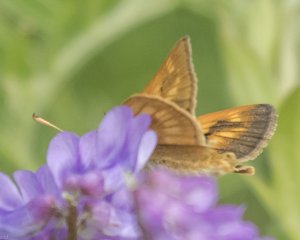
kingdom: Animalia
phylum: Arthropoda
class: Insecta
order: Lepidoptera
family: Hesperiidae
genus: Polites
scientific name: Polites
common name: Long Dash Skipper
